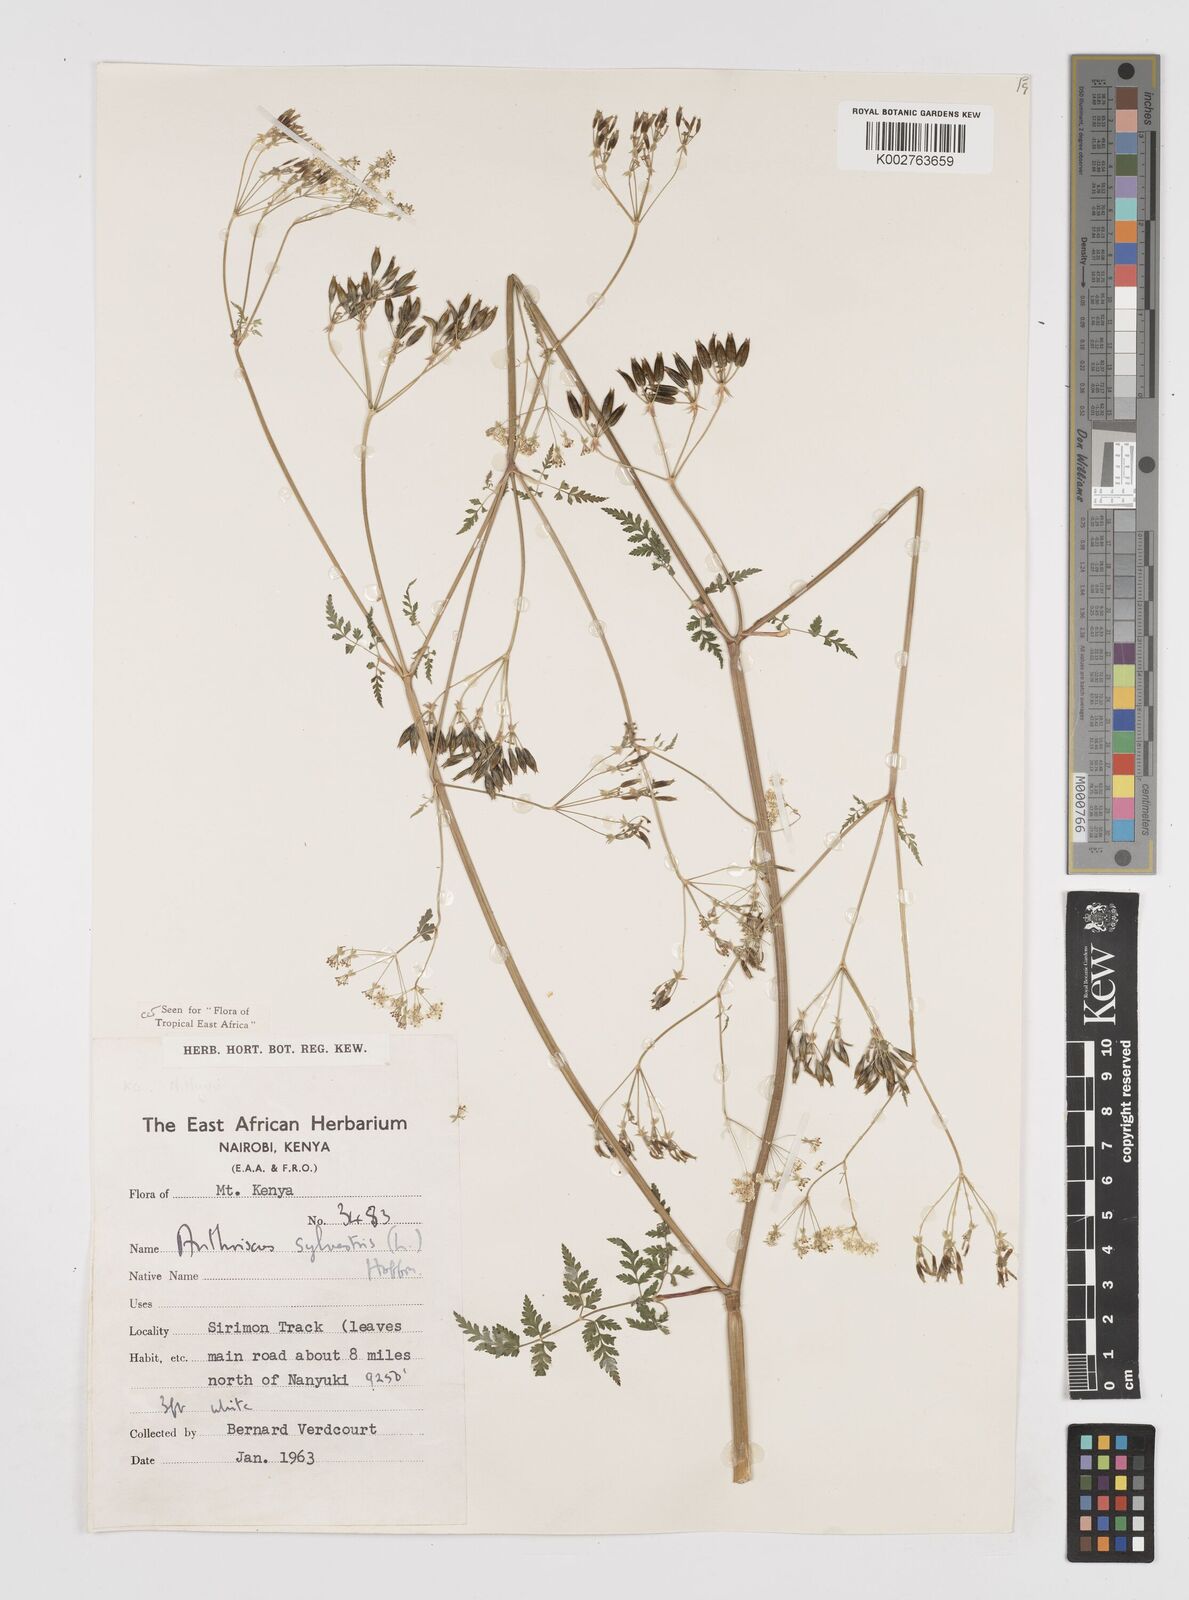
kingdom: Plantae
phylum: Tracheophyta
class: Magnoliopsida
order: Apiales
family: Apiaceae
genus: Anthriscus
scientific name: Anthriscus sylvestris
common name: Cow parsley
